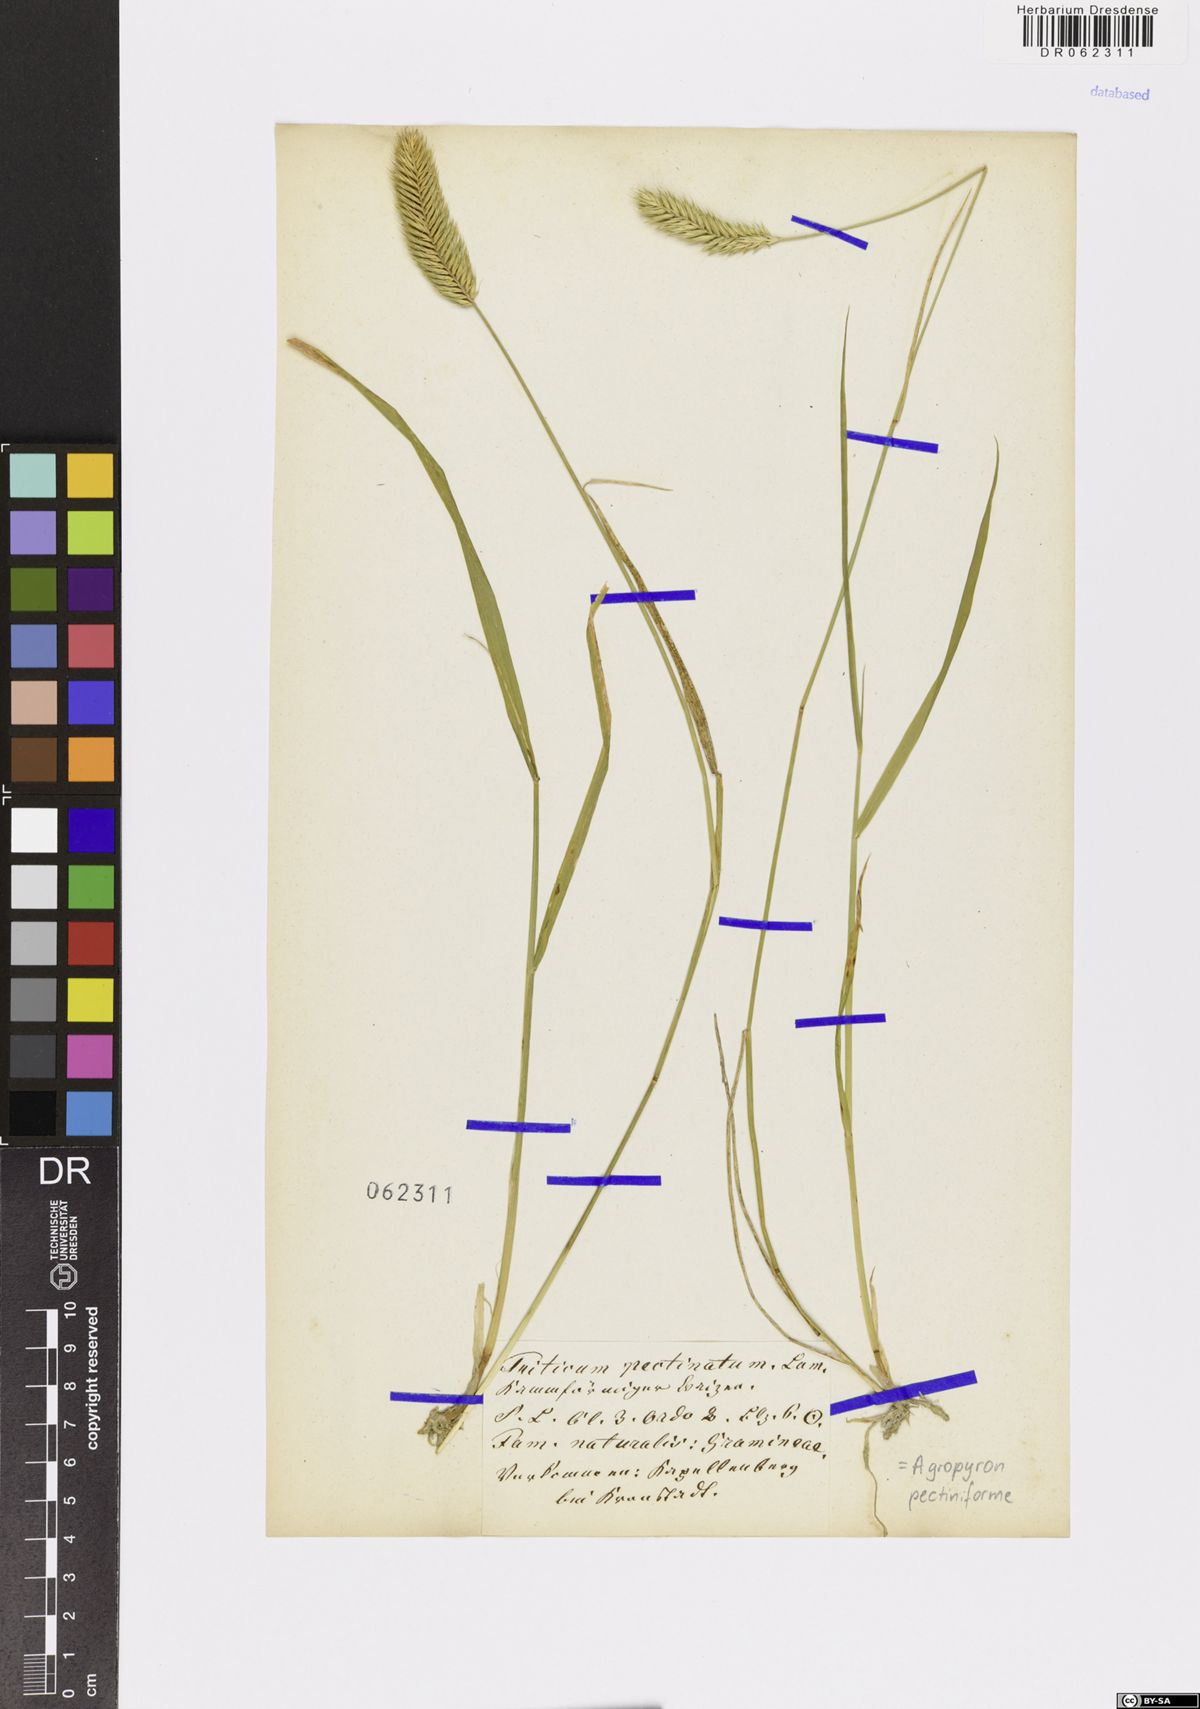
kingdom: Plantae
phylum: Tracheophyta
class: Liliopsida
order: Poales
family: Poaceae
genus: Agropyron
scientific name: Agropyron cristatum
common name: Crested wheatgrass
